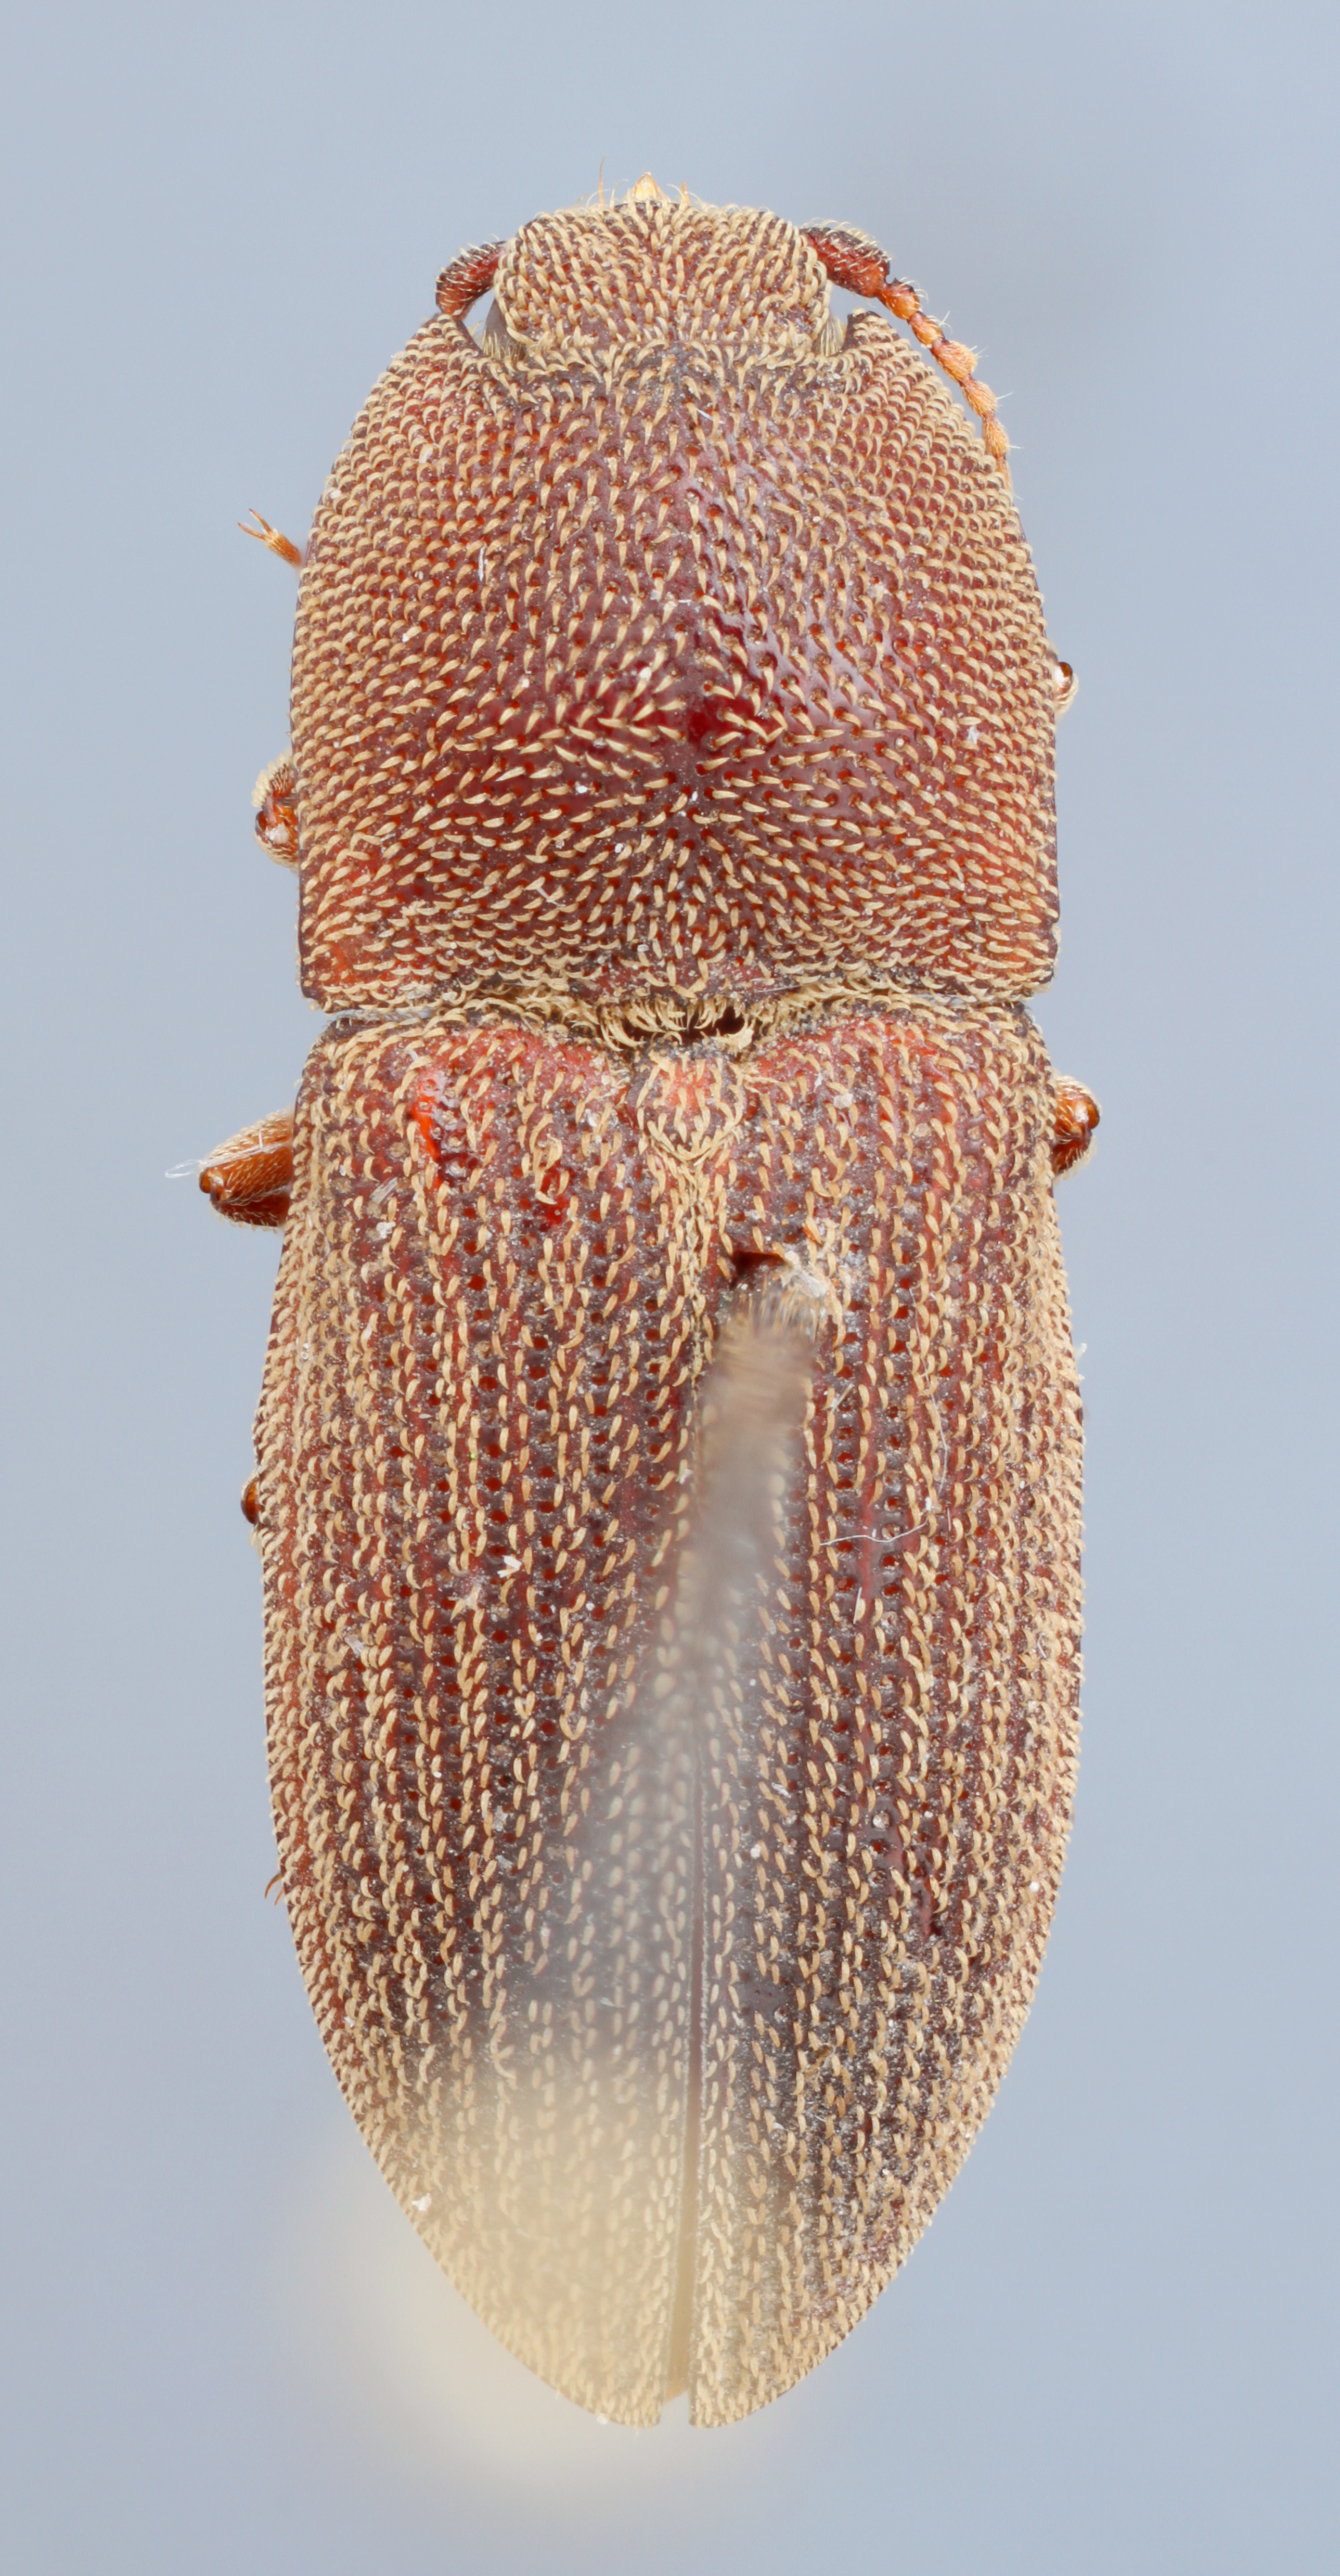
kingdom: Animalia
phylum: Arthropoda
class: Insecta
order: Coleoptera
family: Elateridae
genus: Agrypnus
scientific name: Agrypnus rectangularis
